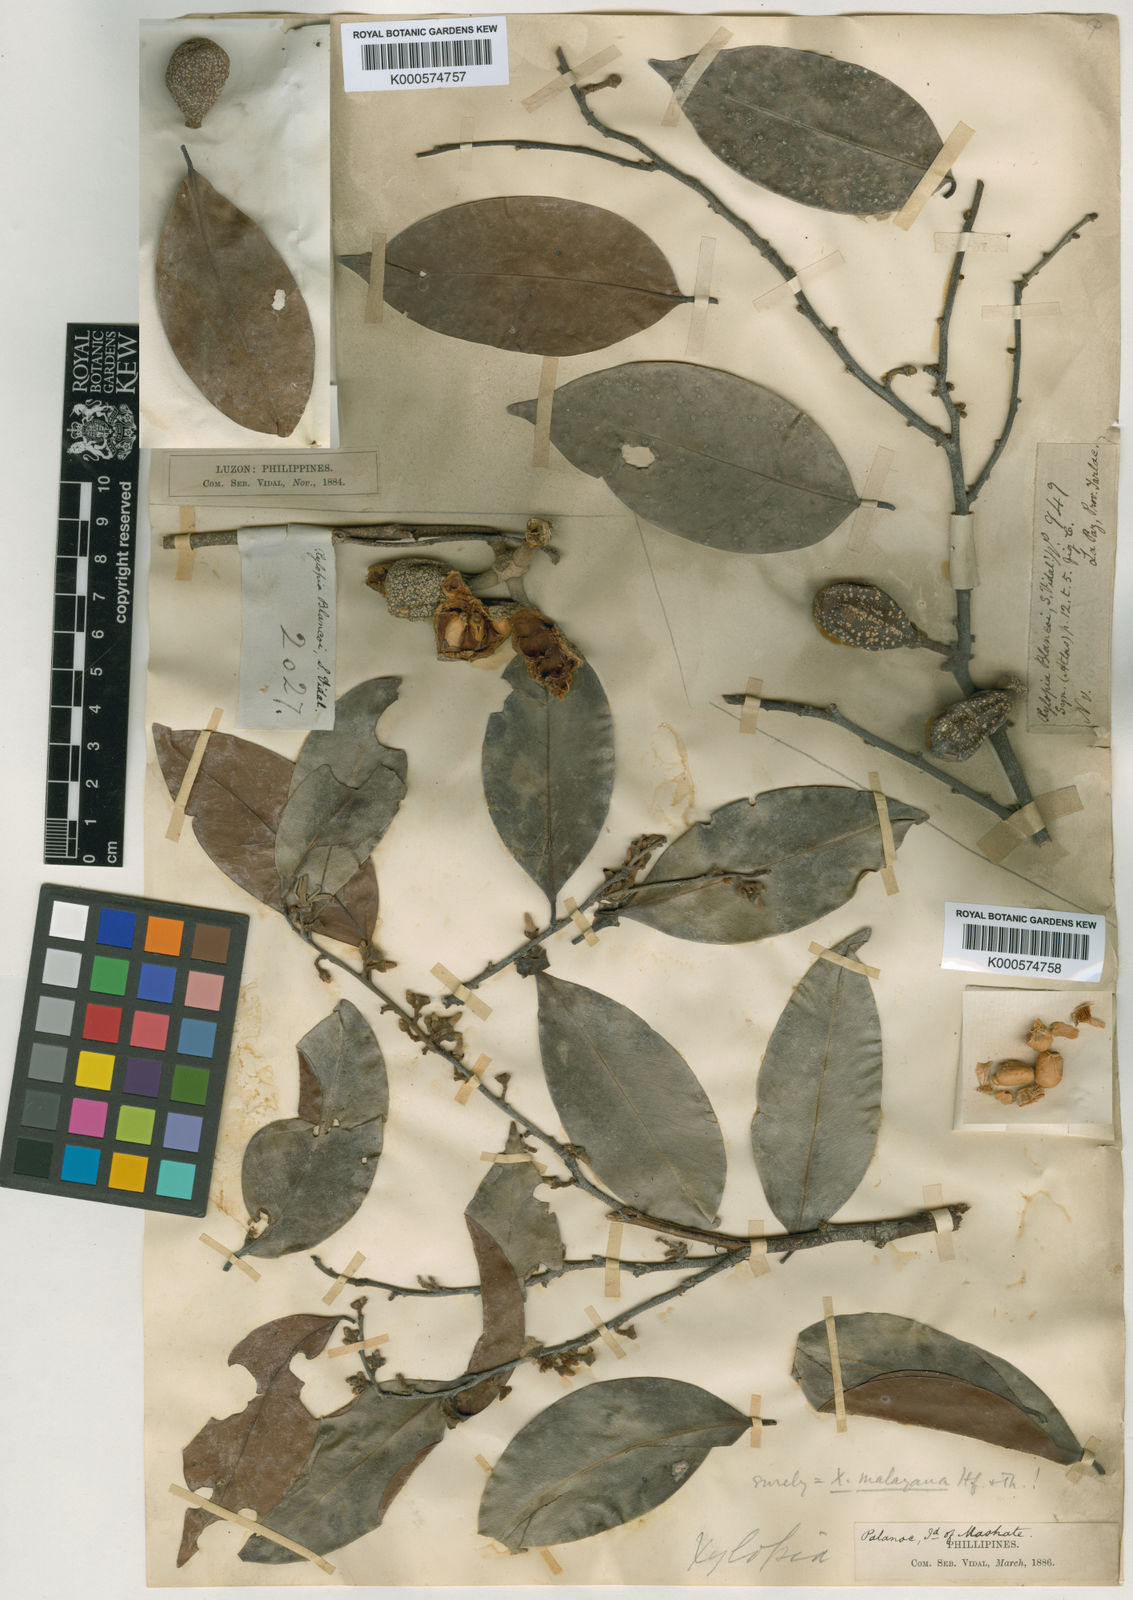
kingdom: Plantae
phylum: Tracheophyta
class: Magnoliopsida
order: Magnoliales
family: Annonaceae
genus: Xylopia
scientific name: Xylopia blancoi
